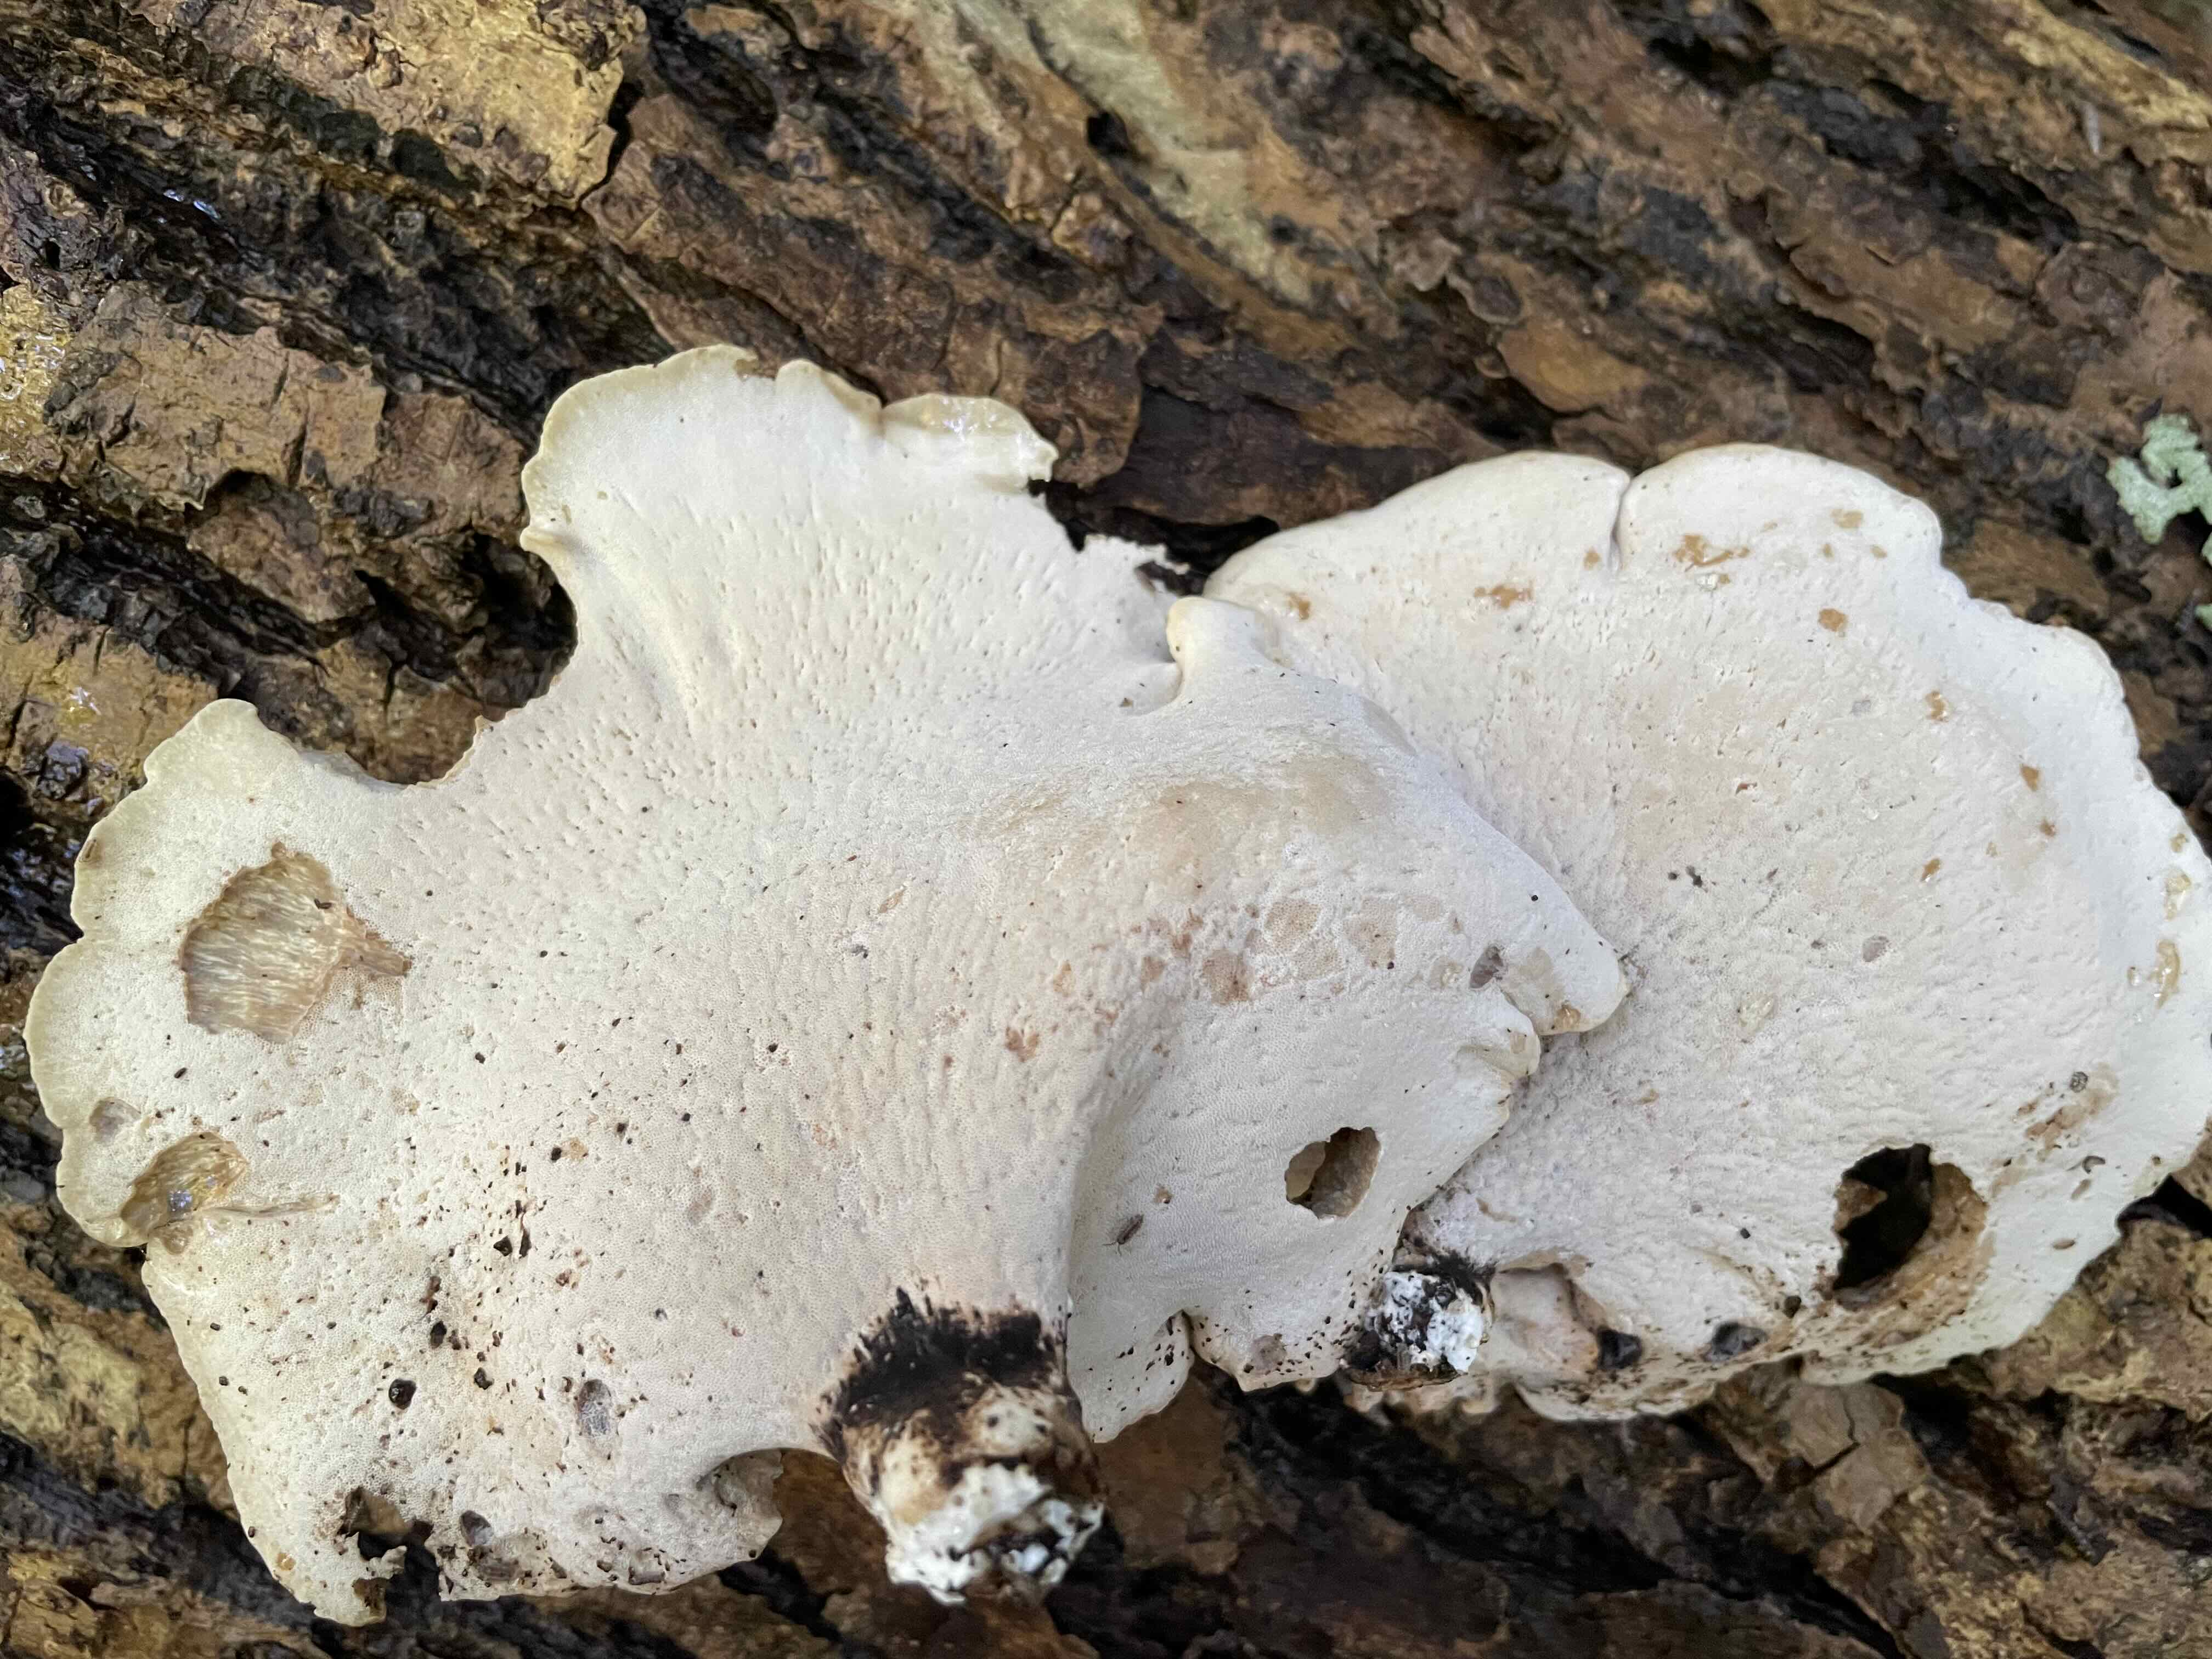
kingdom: Fungi
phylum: Basidiomycota
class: Agaricomycetes
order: Polyporales
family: Polyporaceae
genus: Cerioporus
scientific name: Cerioporus varius
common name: foranderlig stilkporesvamp
